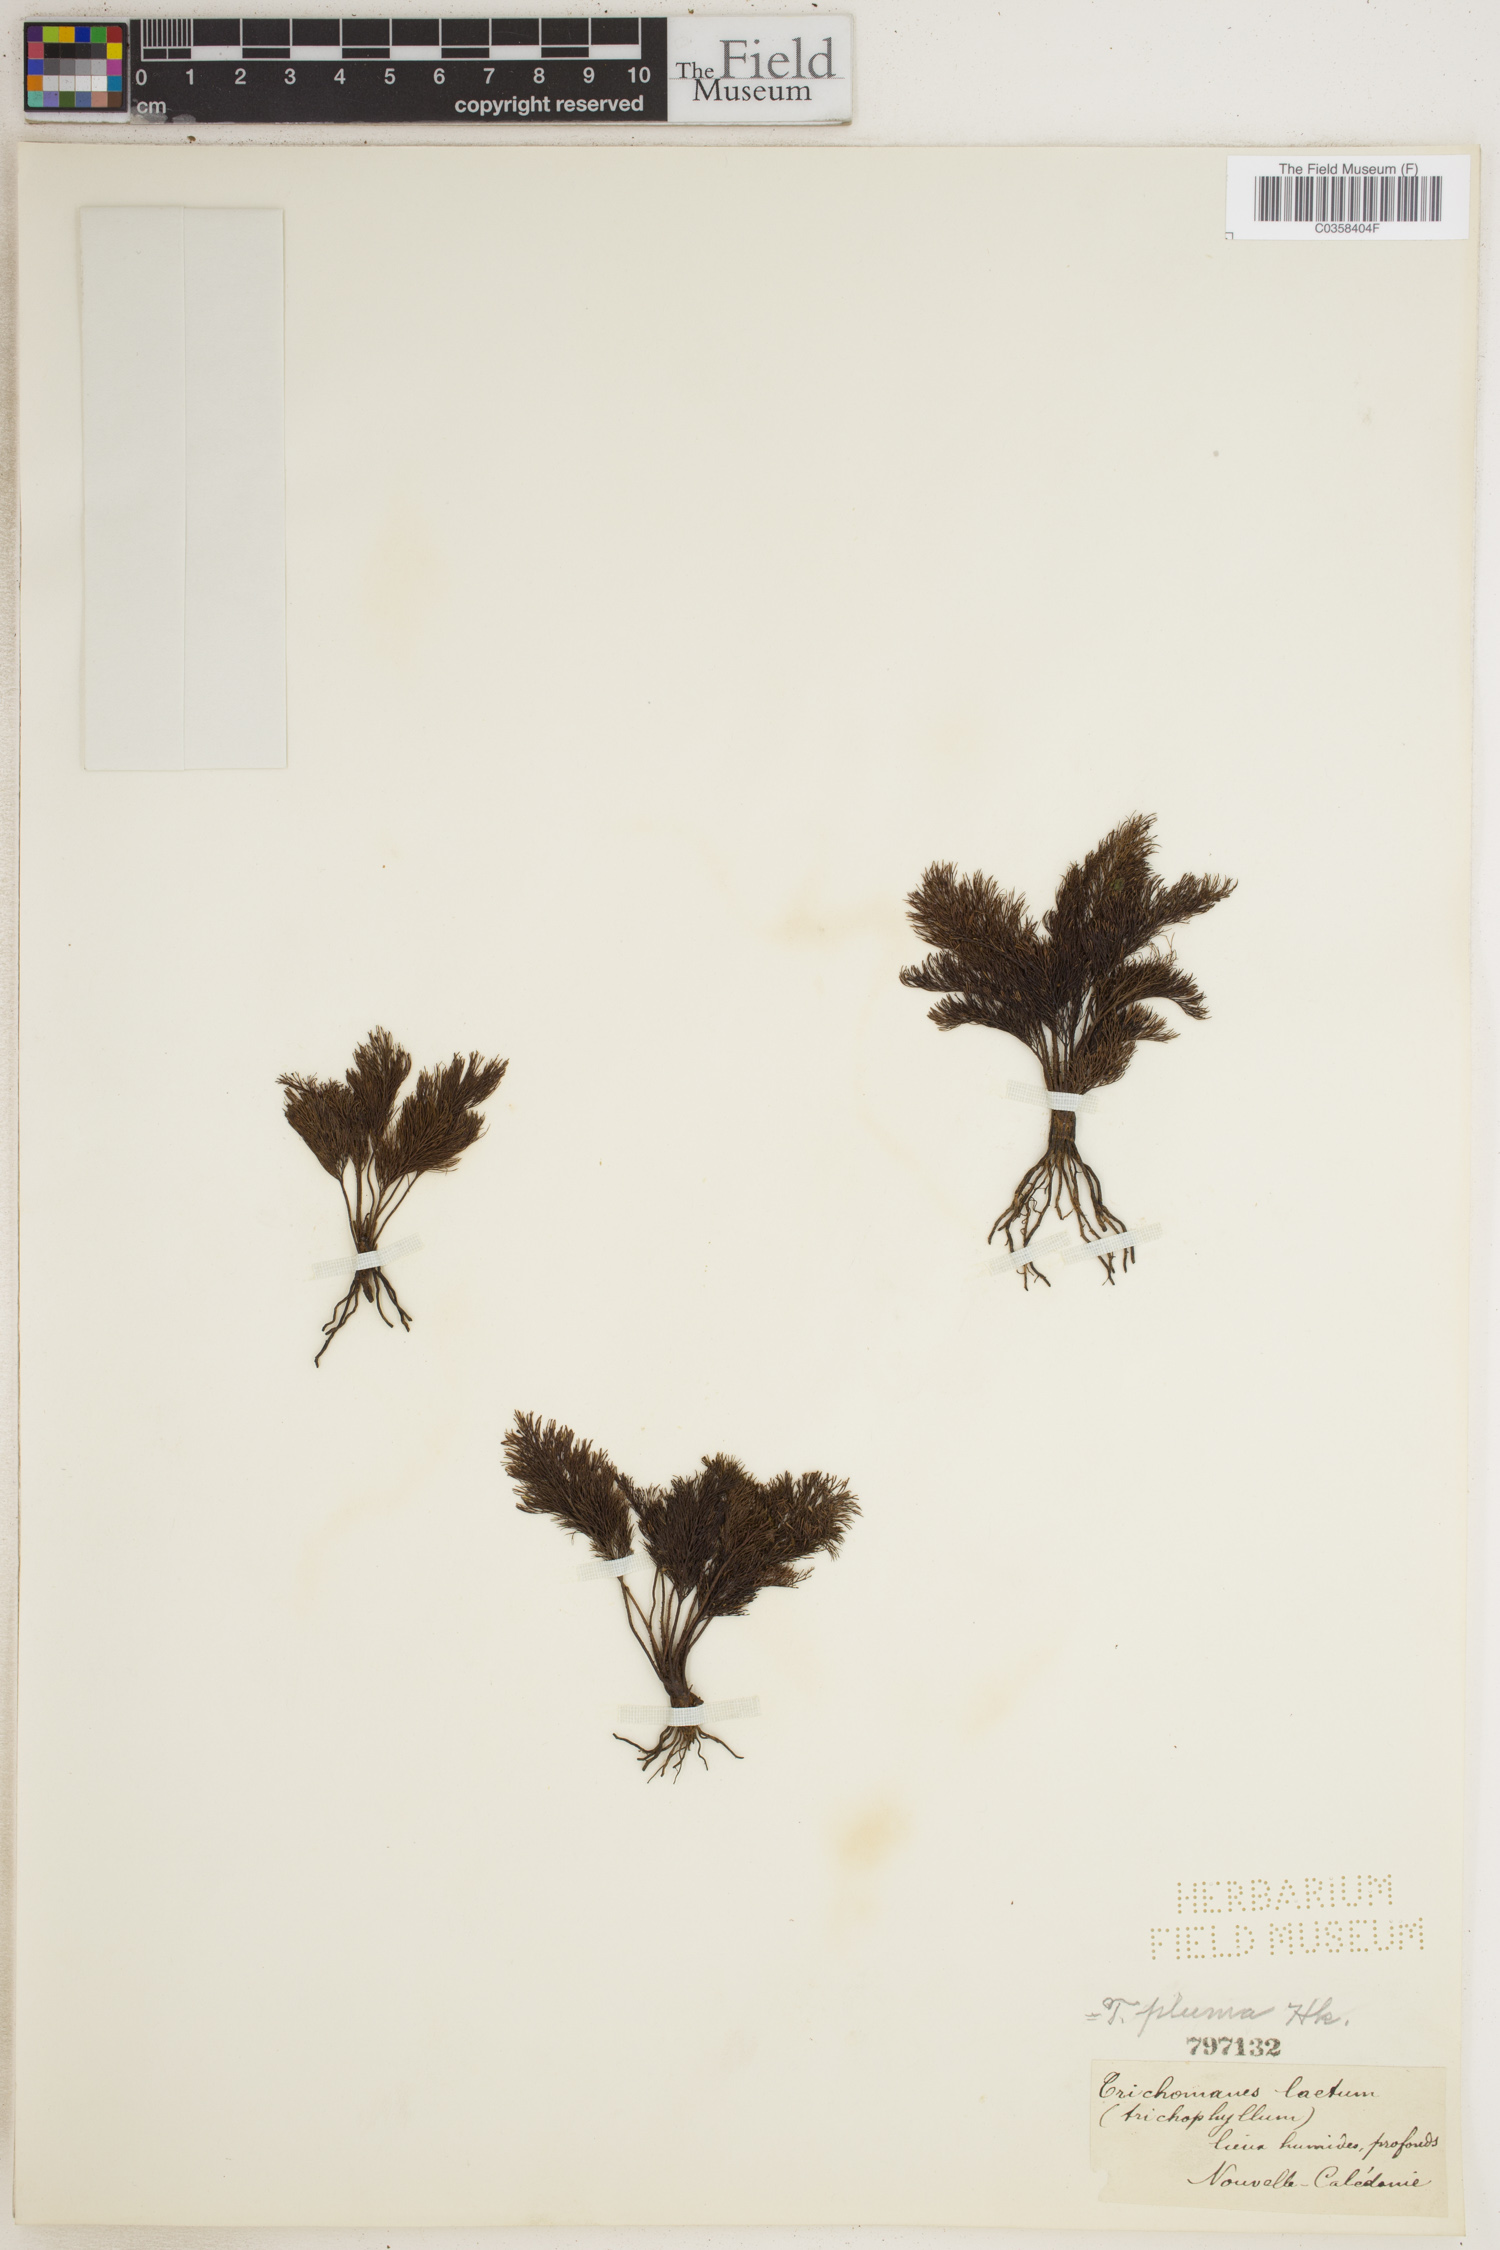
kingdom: Plantae
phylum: Tracheophyta
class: Polypodiopsida
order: Hymenophyllales
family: Hymenophyllaceae
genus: Abrodictyum
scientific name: Abrodictyum pluma
